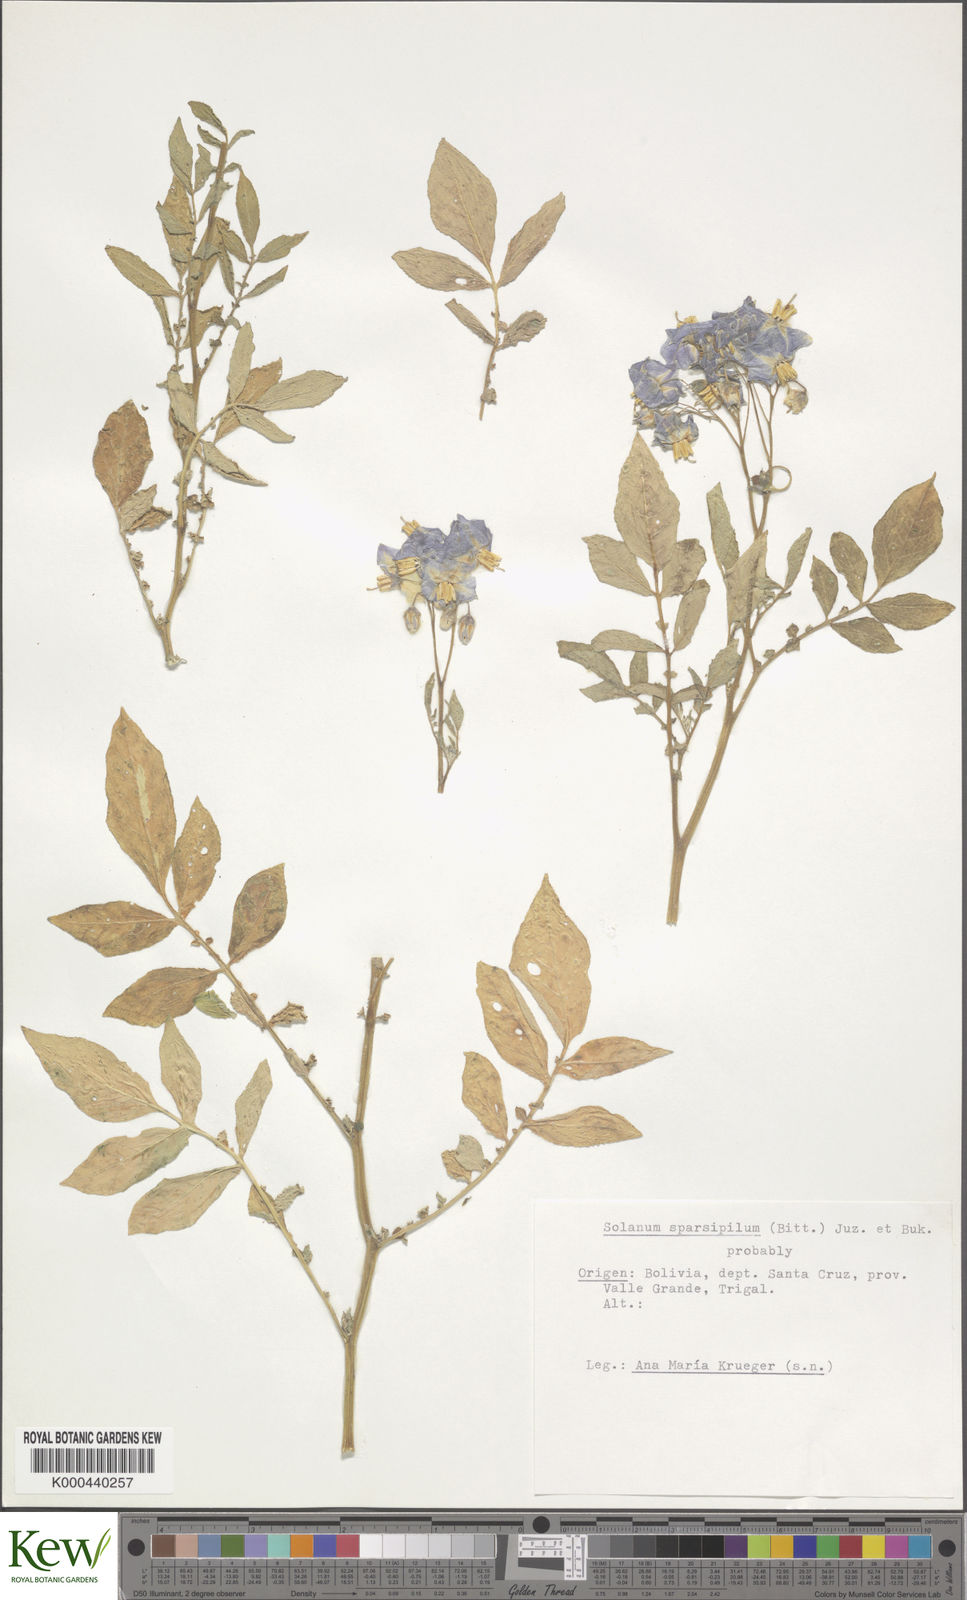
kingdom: Plantae
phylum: Tracheophyta
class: Magnoliopsida
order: Solanales
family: Solanaceae
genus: Solanum
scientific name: Solanum brevicaule
